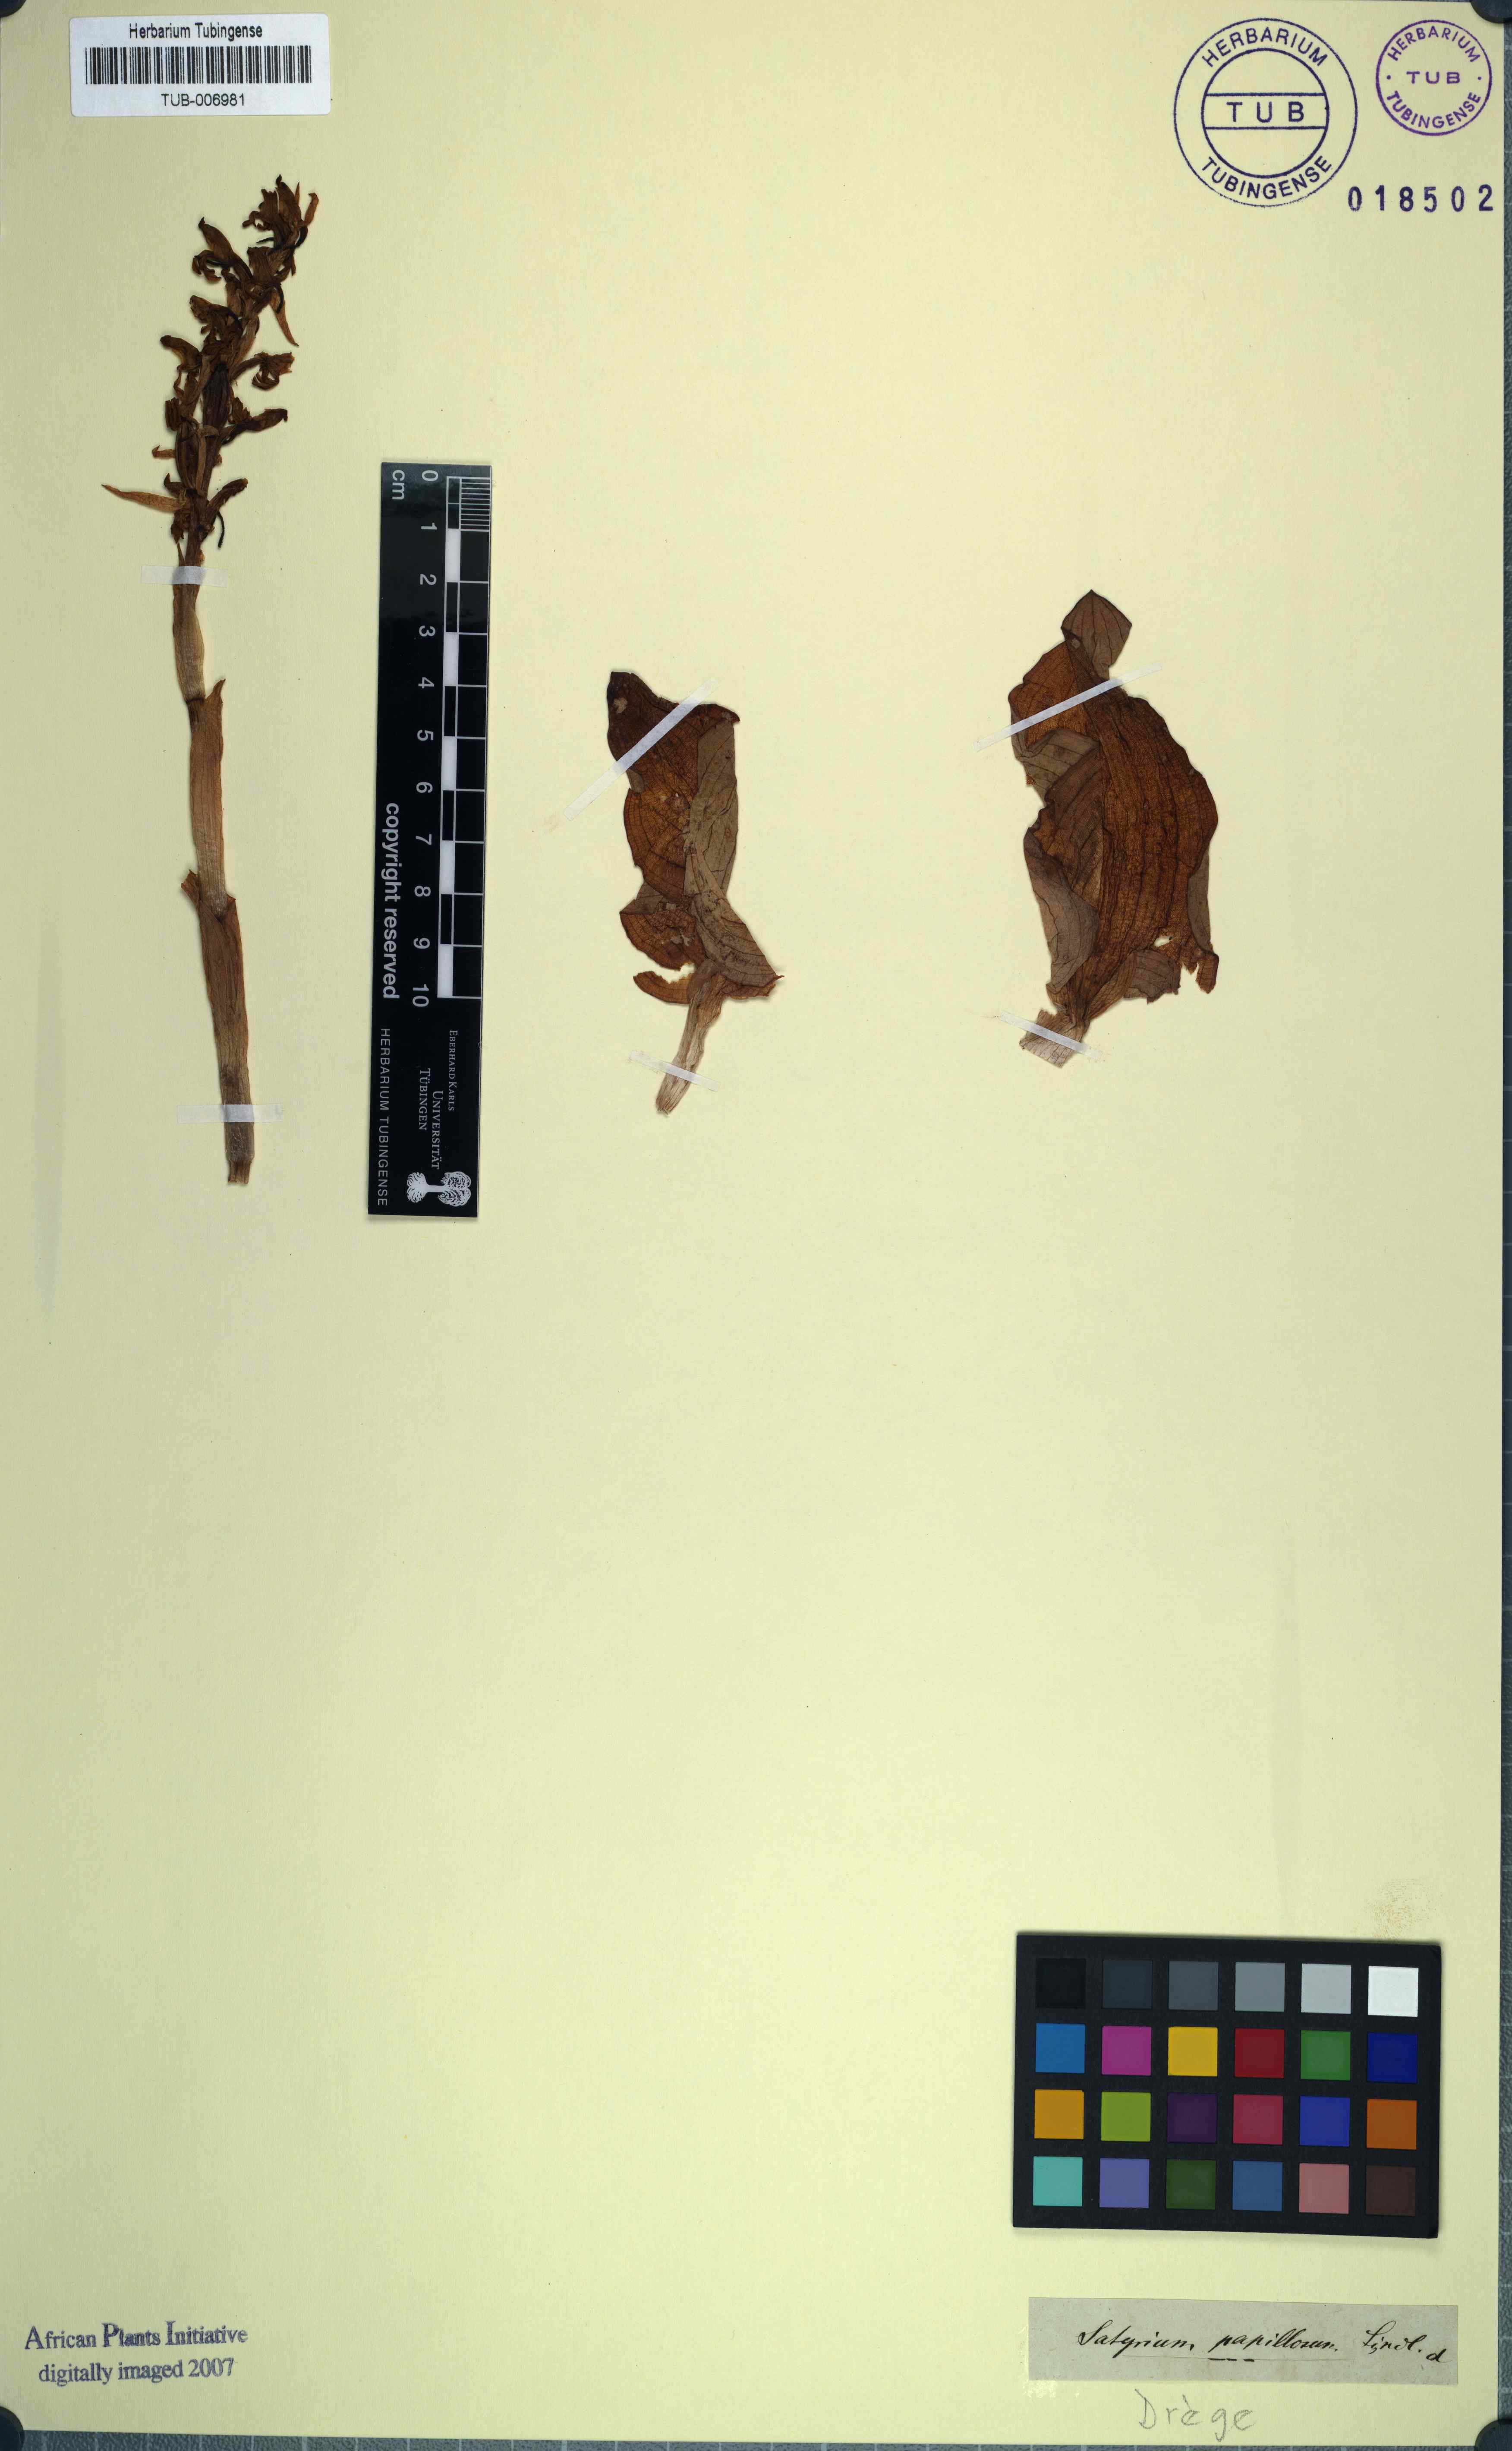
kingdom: Plantae
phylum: Tracheophyta
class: Liliopsida
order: Asparagales
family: Orchidaceae
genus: Satyrium
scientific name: Satyrium erectum
